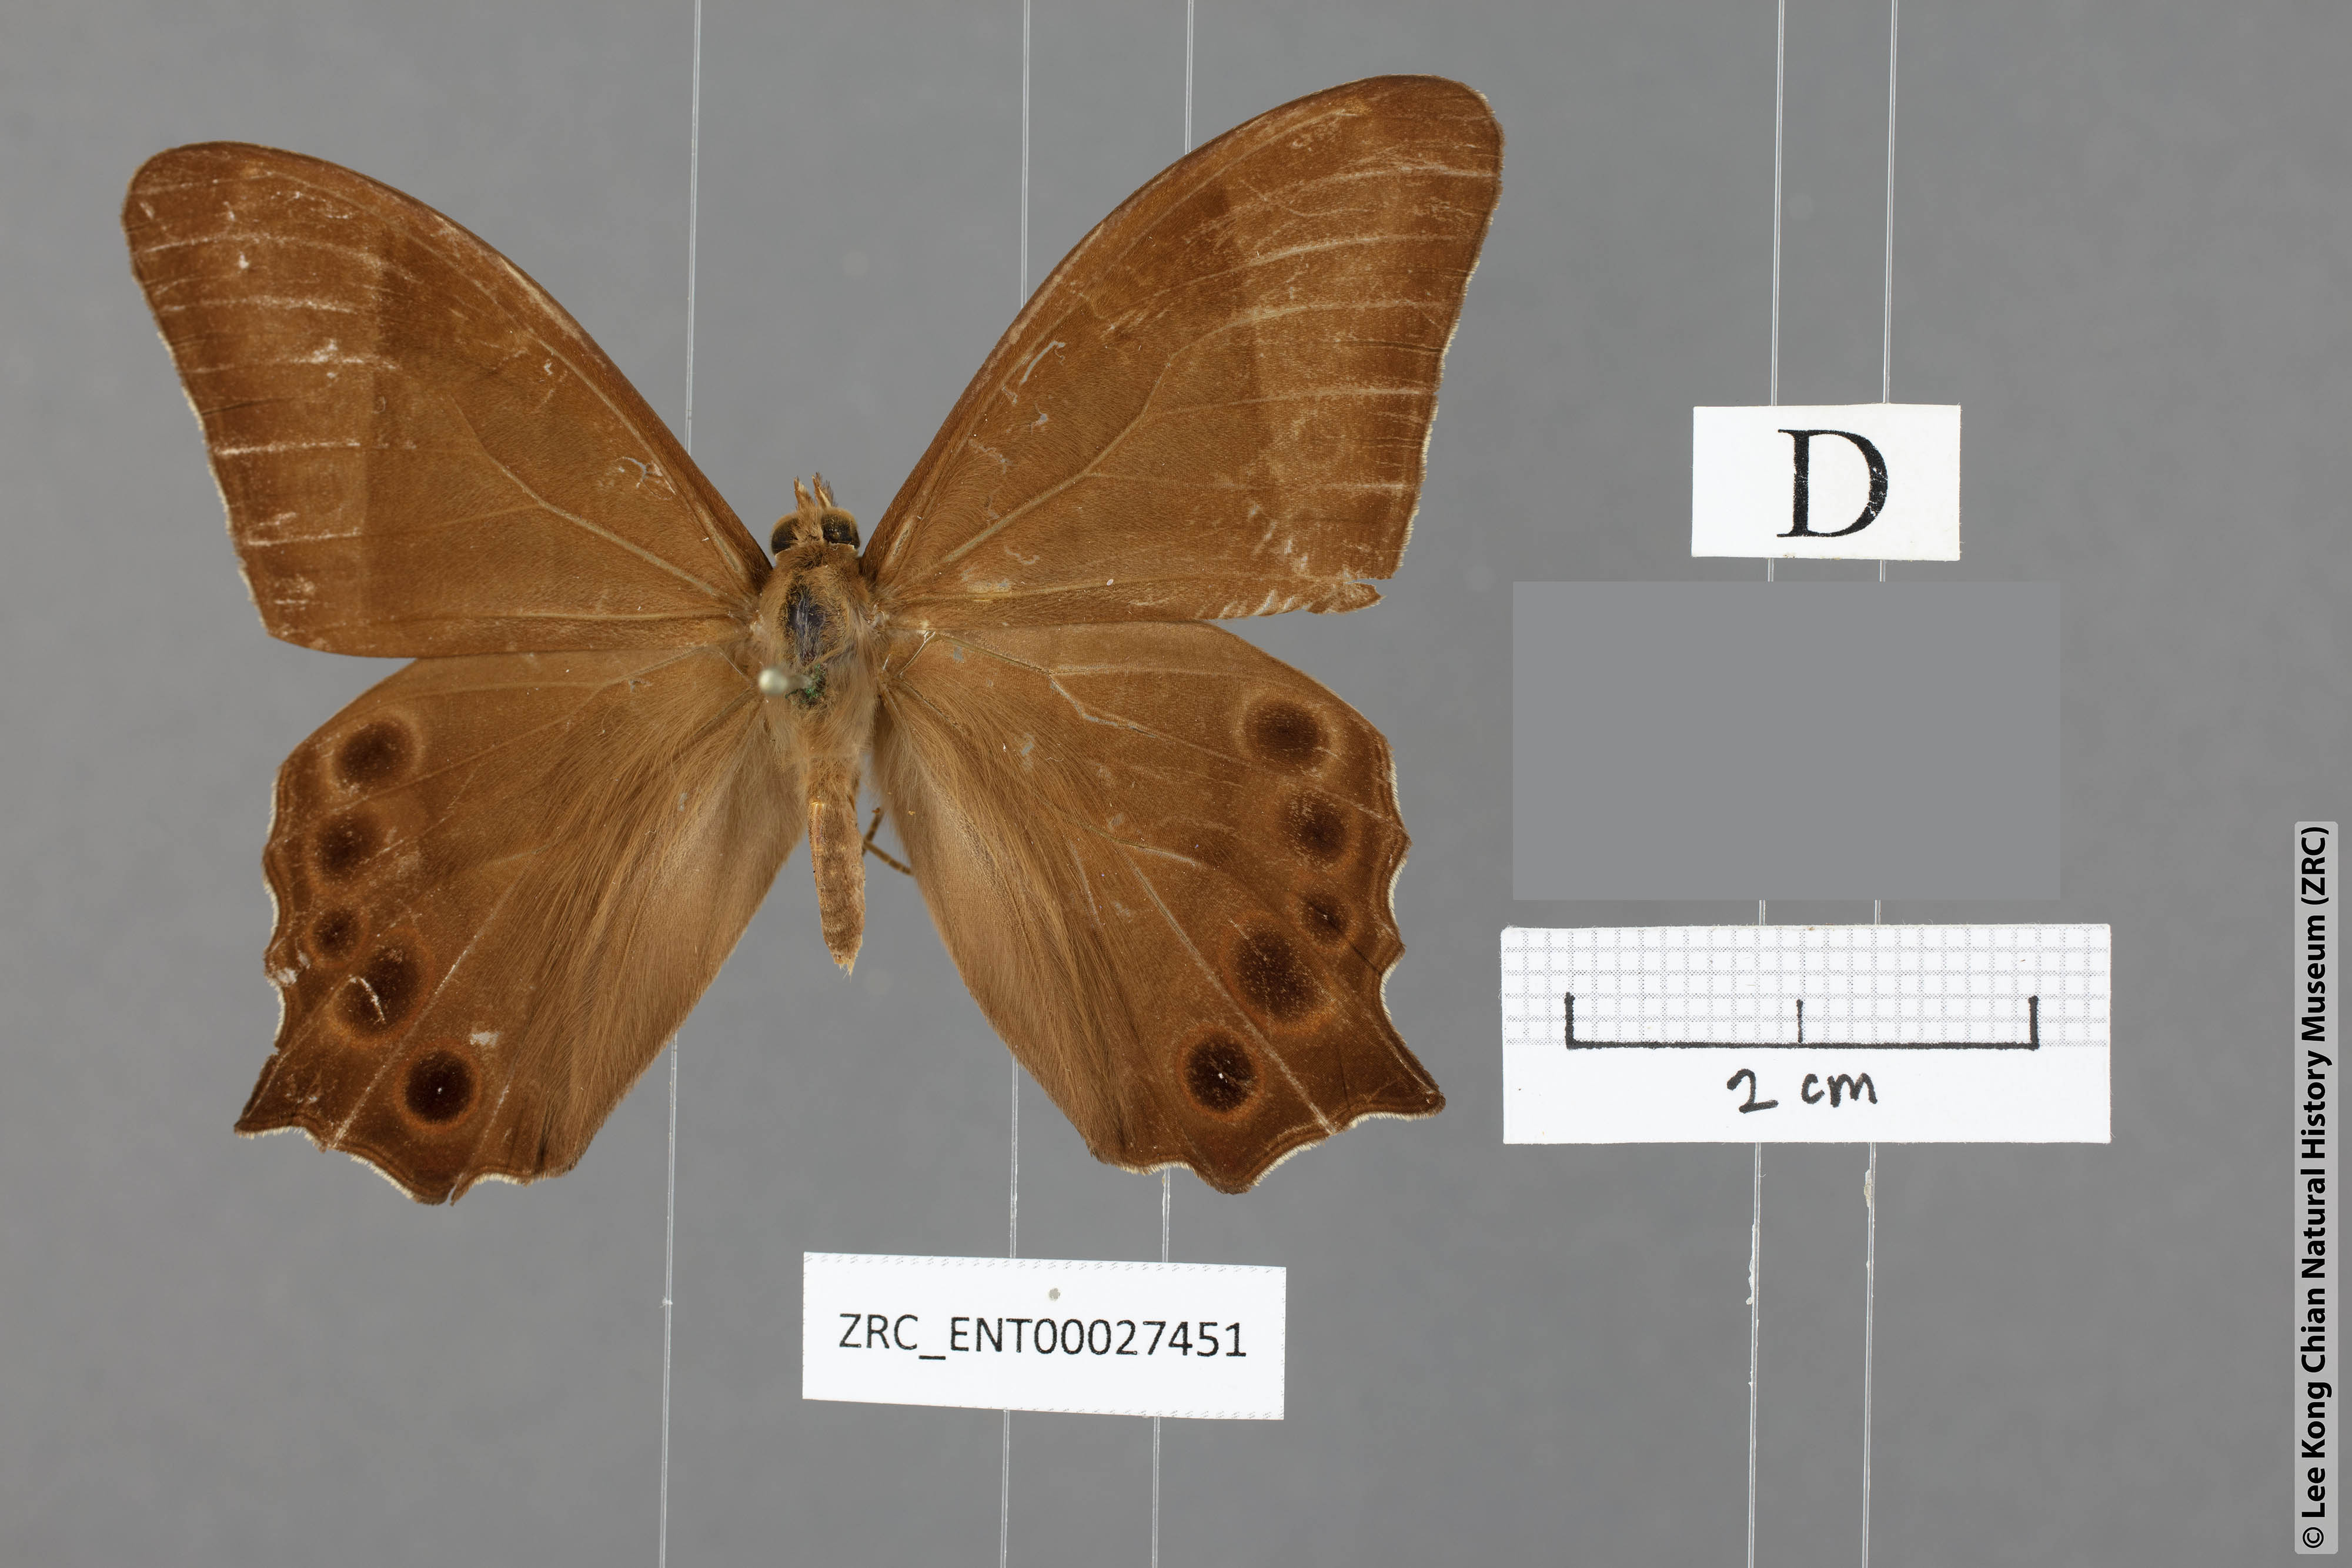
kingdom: Animalia
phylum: Arthropoda
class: Insecta
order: Lepidoptera
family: Nymphalidae
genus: Lethe
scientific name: Lethe vindhya
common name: Black forester
